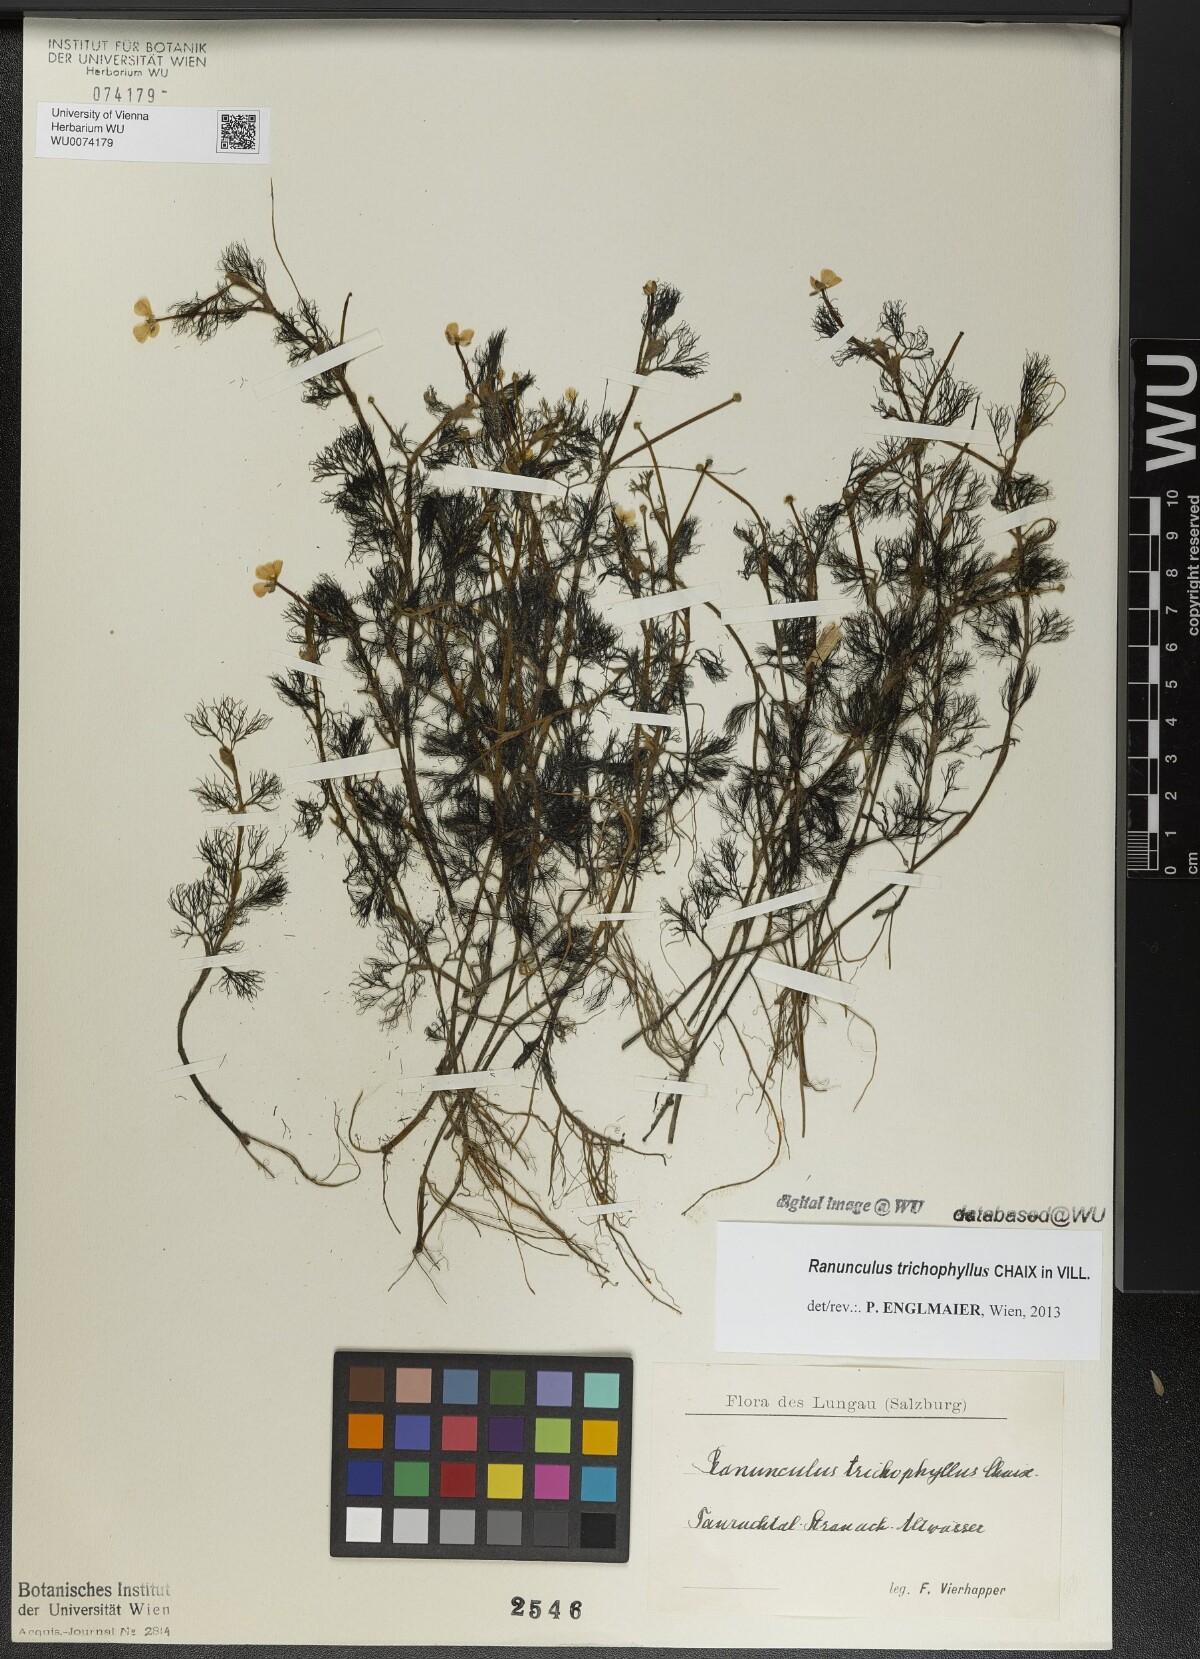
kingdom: Plantae
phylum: Tracheophyta
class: Magnoliopsida
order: Ranunculales
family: Ranunculaceae
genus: Ranunculus
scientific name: Ranunculus trichophyllus
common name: Thread-leaved water-crowfoot
